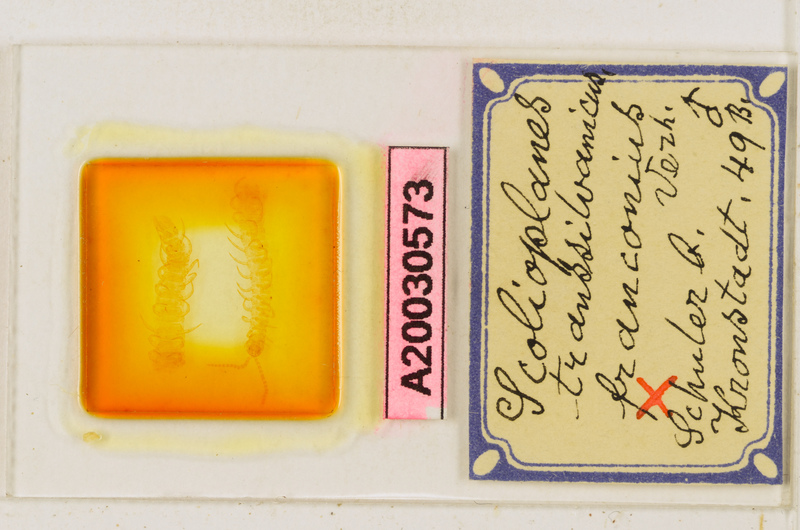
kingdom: Animalia
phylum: Arthropoda
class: Chilopoda
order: Geophilomorpha
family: Linotaeniidae
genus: Strigamia
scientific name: Strigamia transsilvanica
